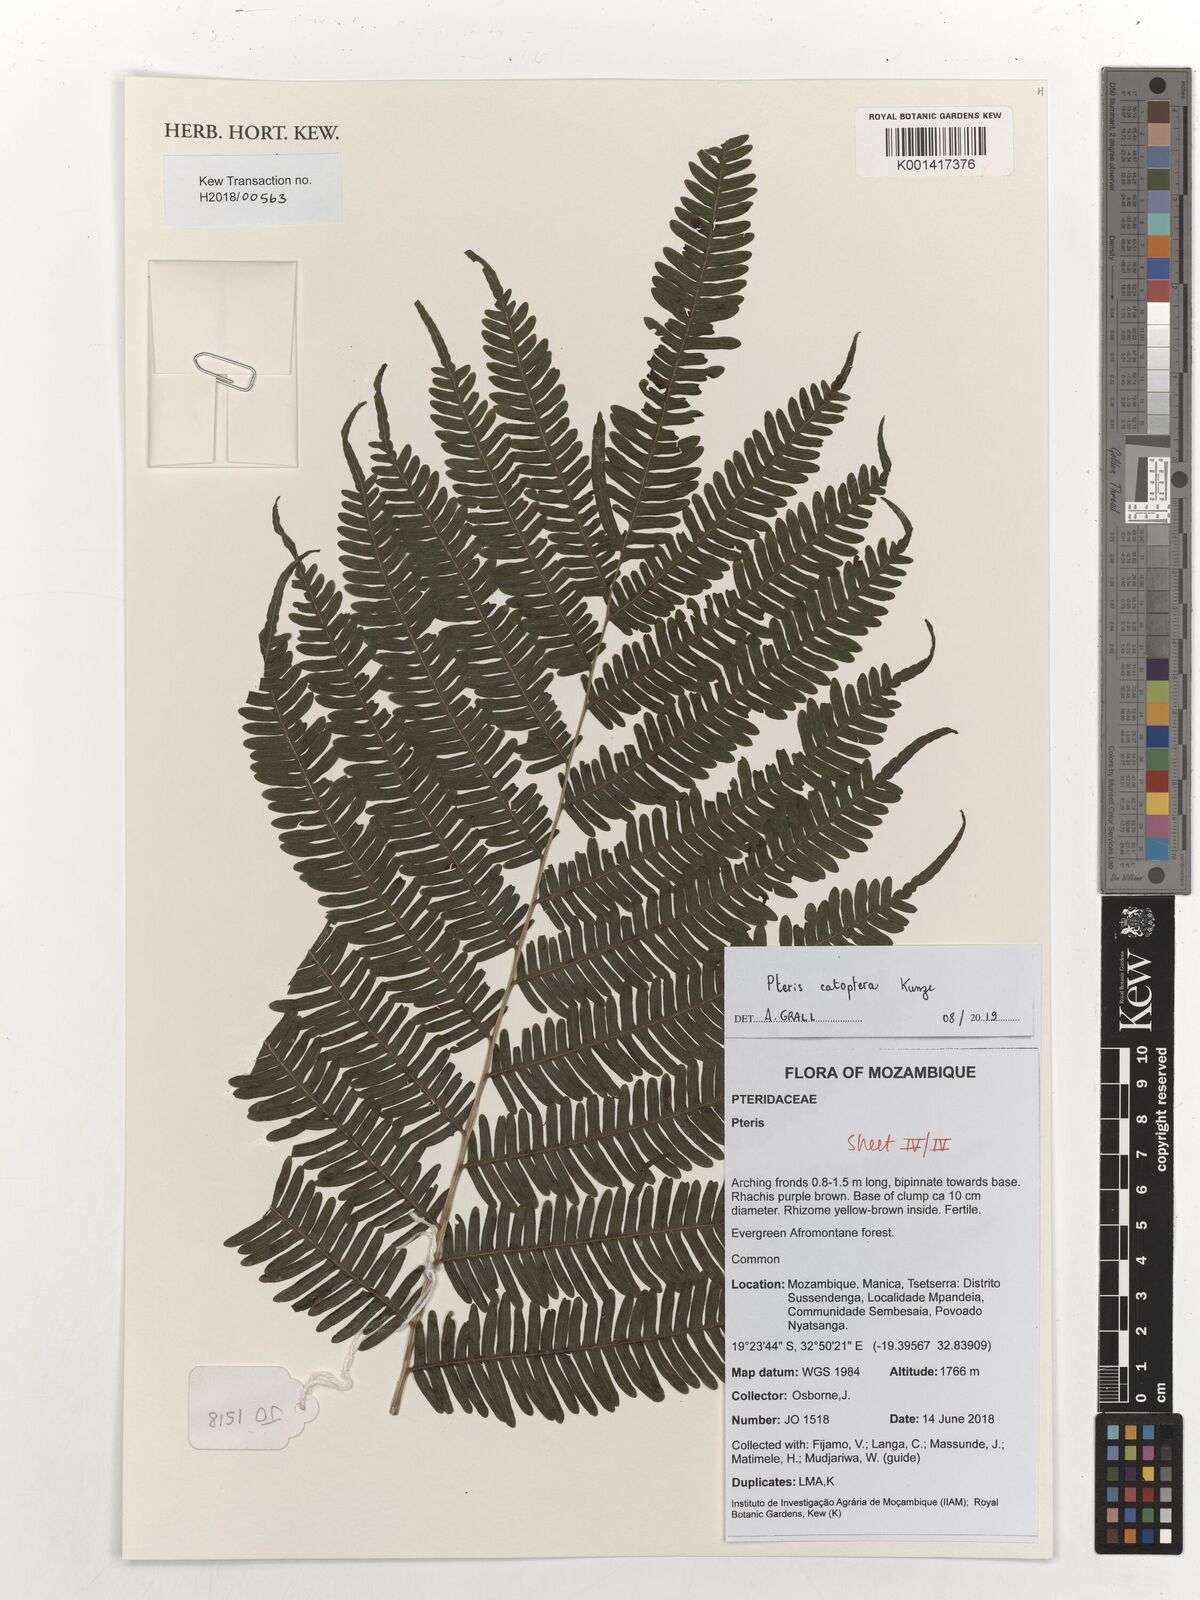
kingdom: Plantae
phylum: Tracheophyta
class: Polypodiopsida
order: Polypodiales
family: Pteridaceae
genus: Pteris
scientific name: Pteris catoptera
